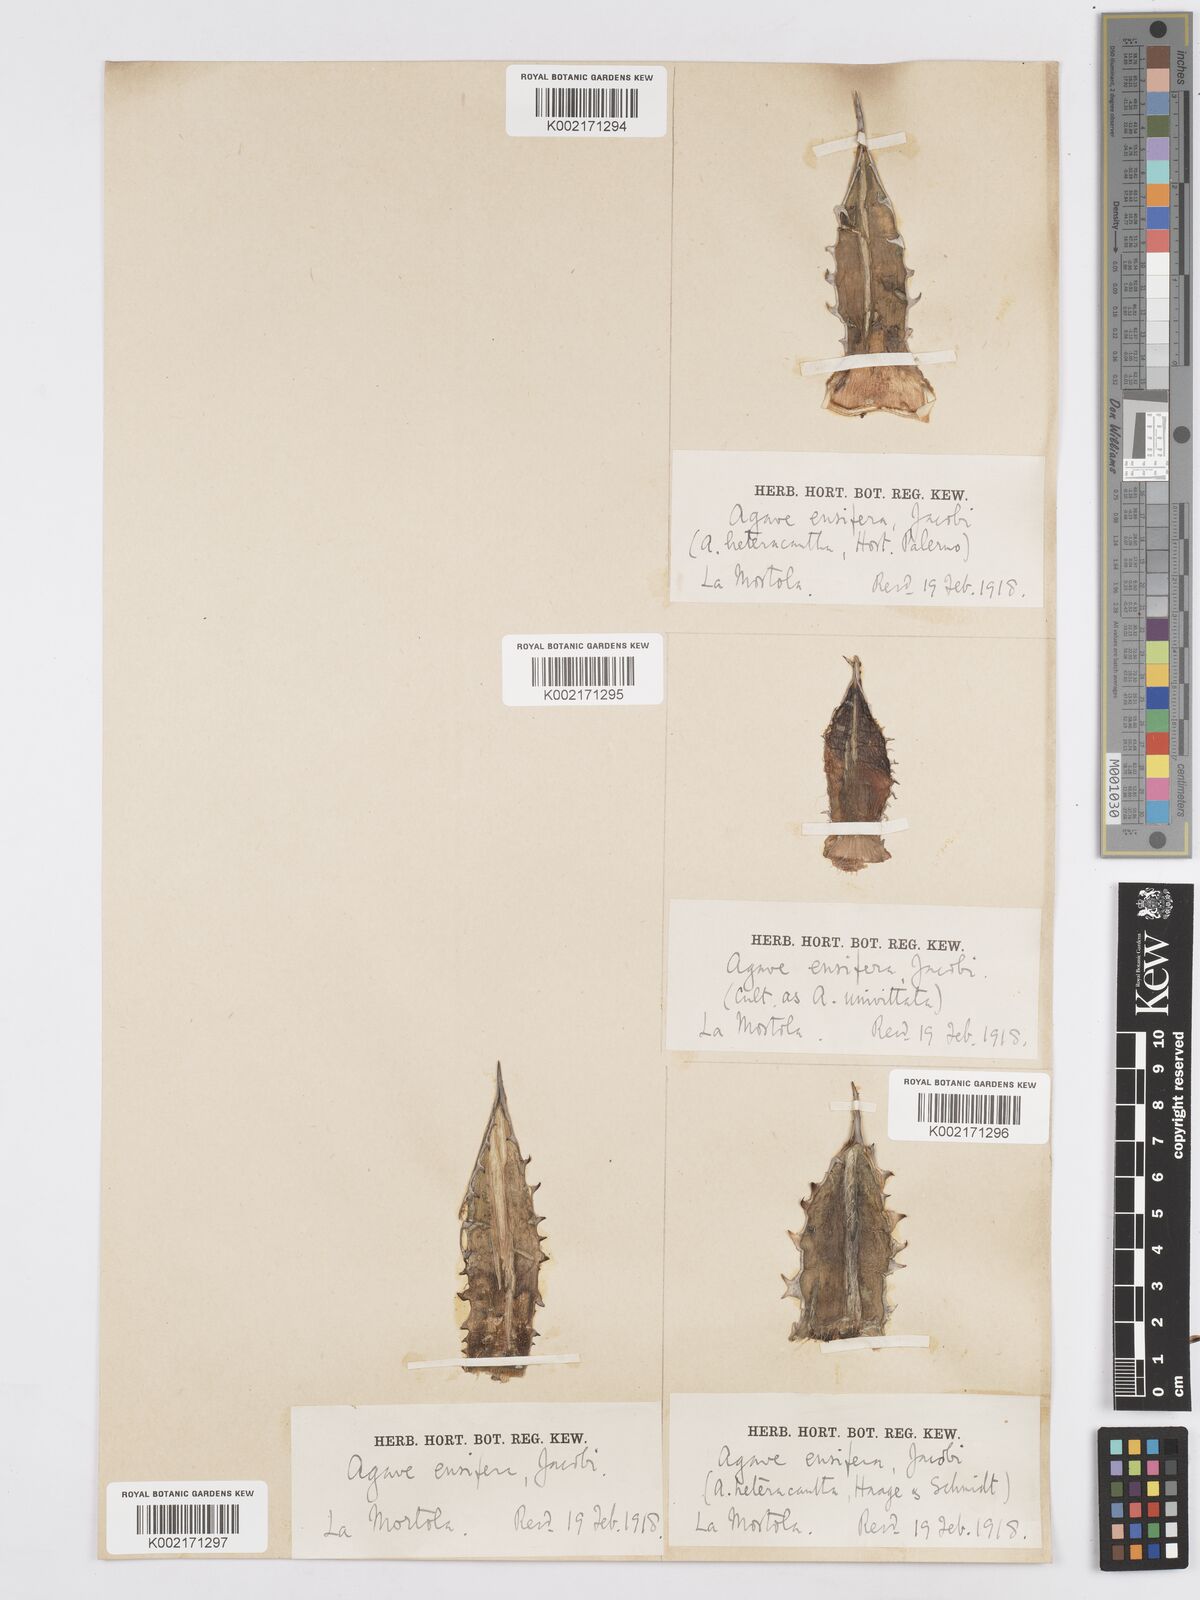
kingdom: Plantae
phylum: Tracheophyta
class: Liliopsida
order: Asparagales
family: Asparagaceae
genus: Agave
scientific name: Agave ensifera
